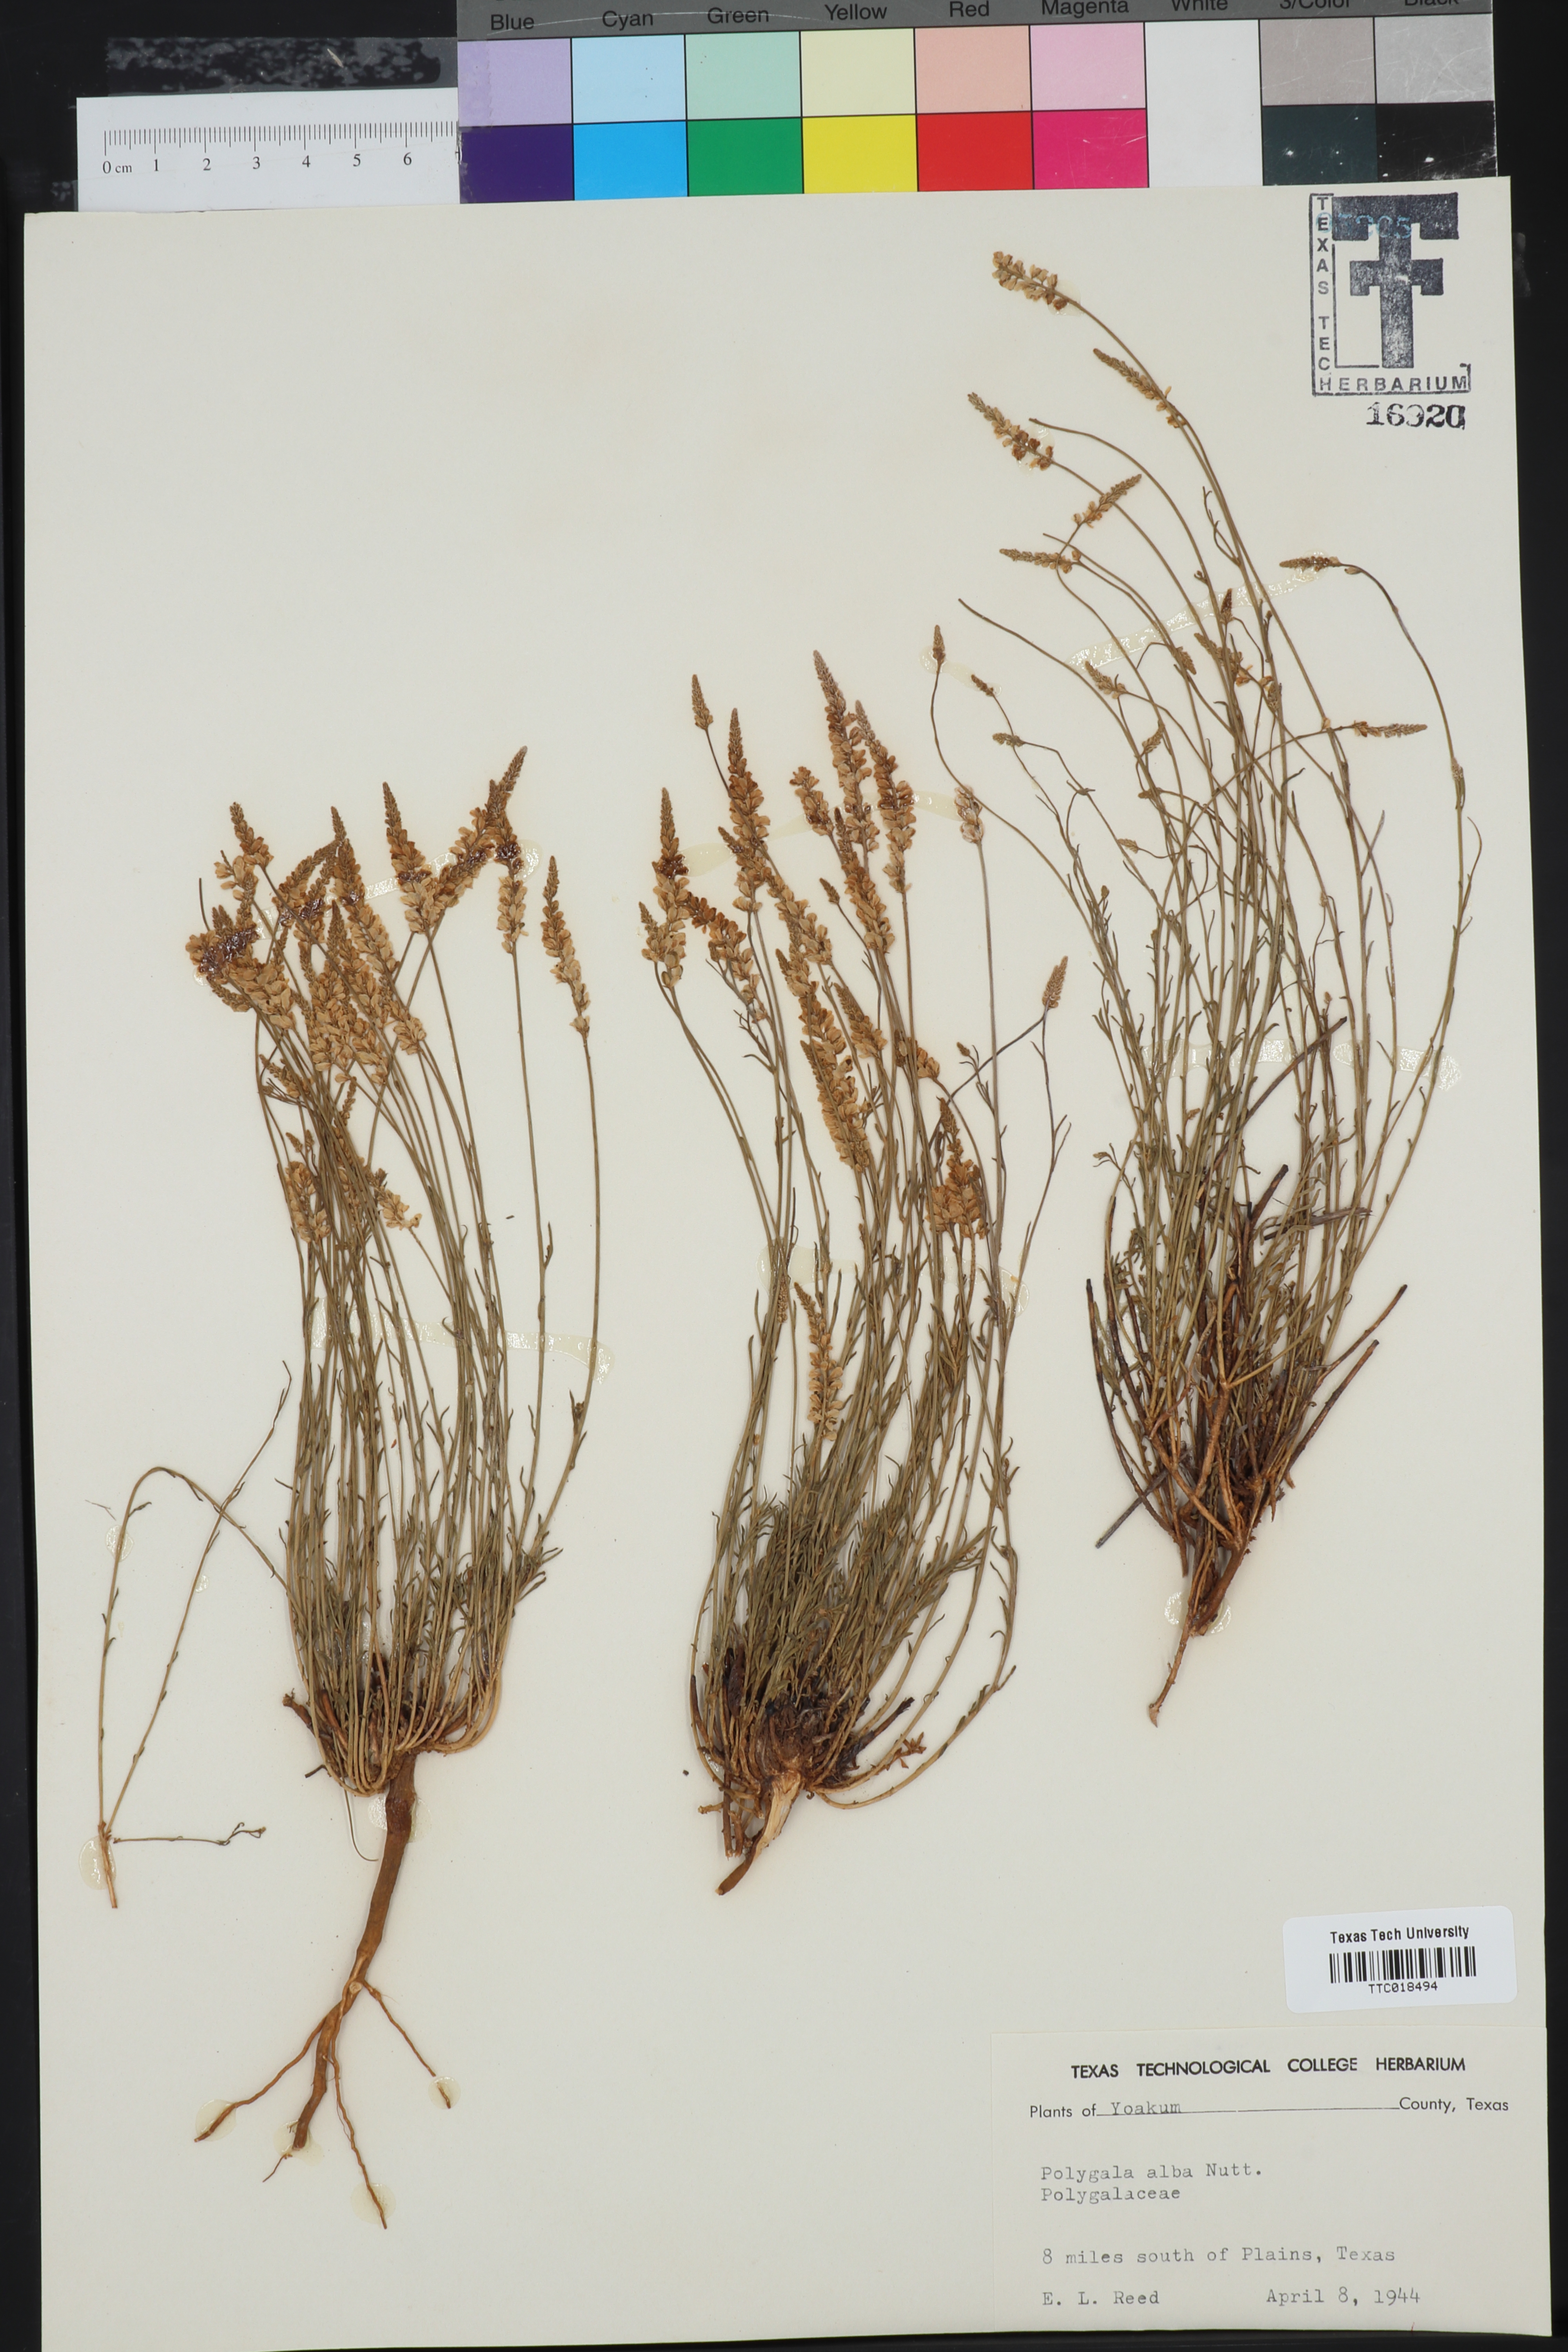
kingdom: Plantae
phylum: Tracheophyta
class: Magnoliopsida
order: Fabales
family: Polygalaceae
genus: Polygala
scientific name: Polygala alba
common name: White milkwort
